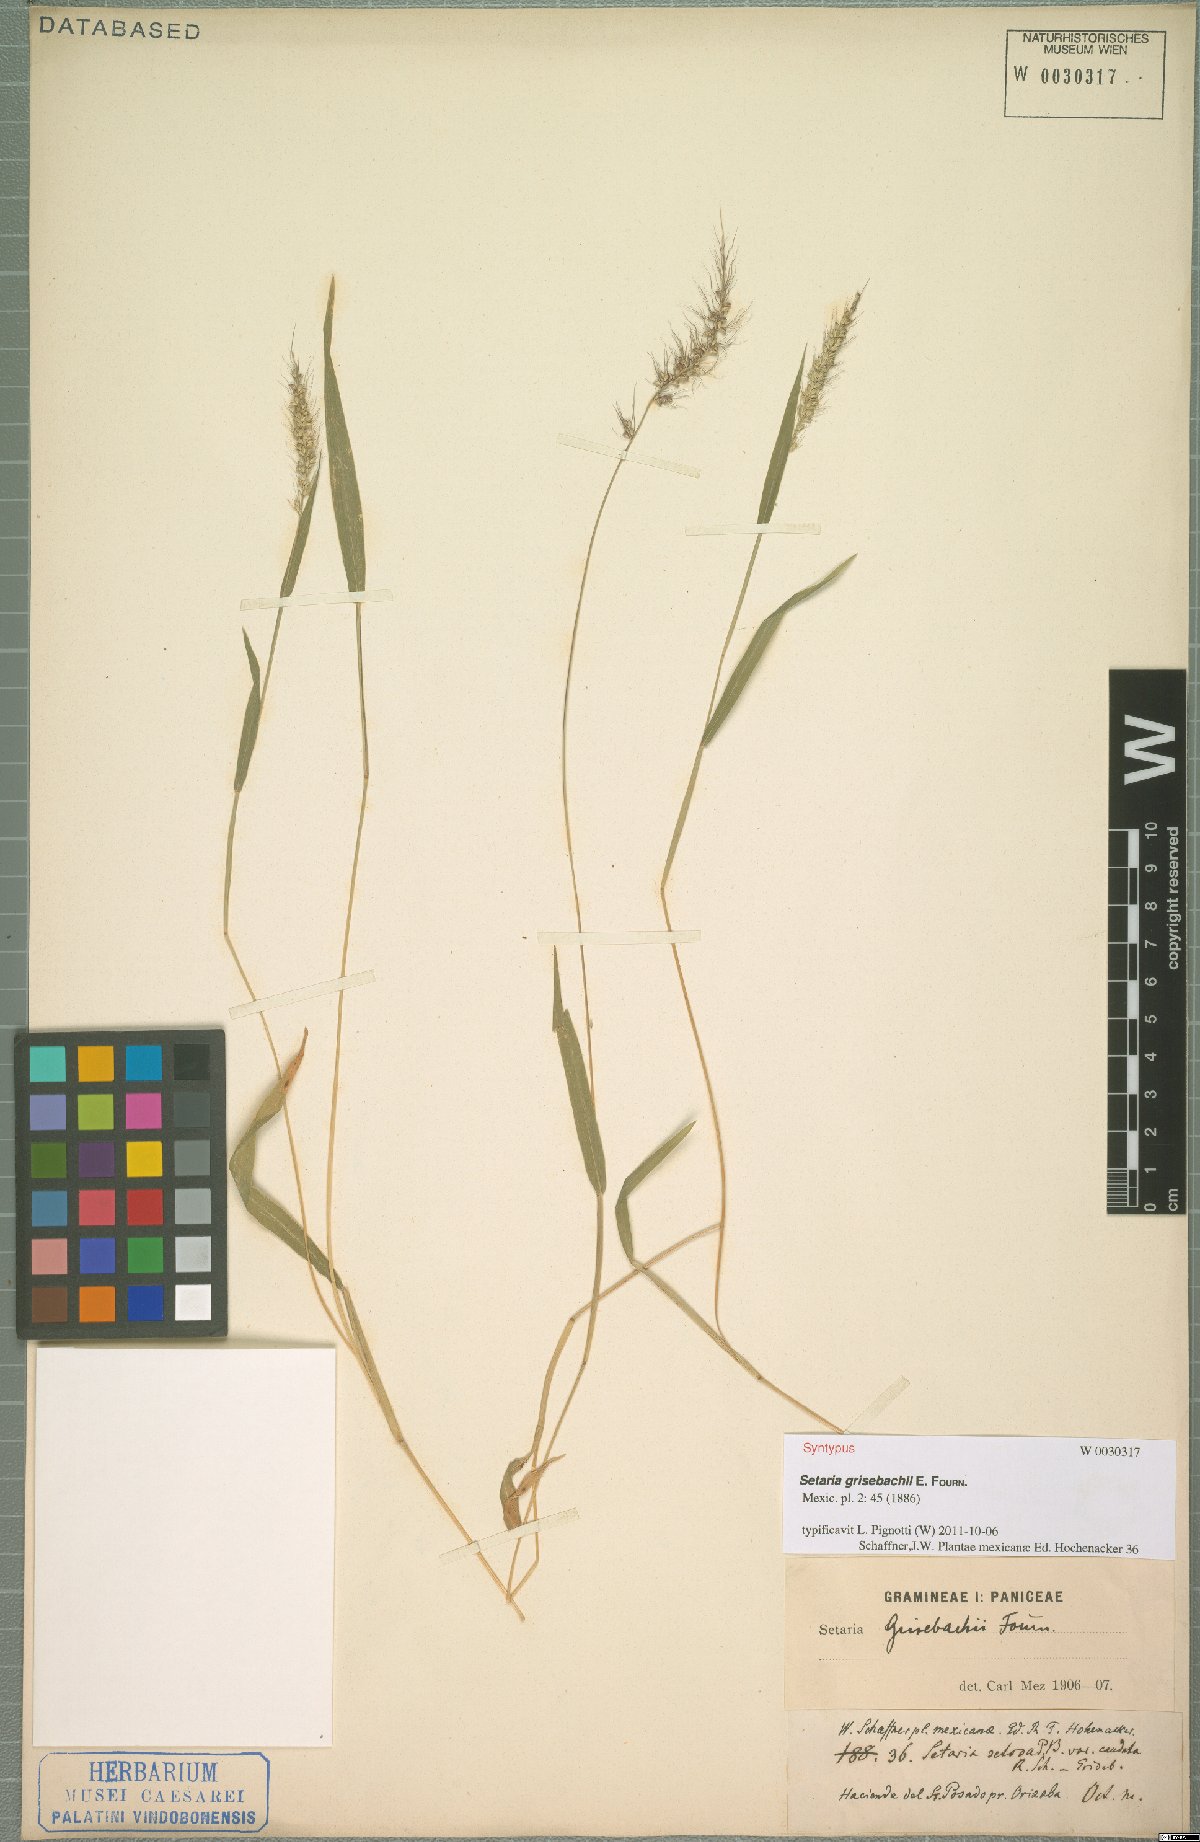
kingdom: Plantae
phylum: Tracheophyta
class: Liliopsida
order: Poales
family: Poaceae
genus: Setaria
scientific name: Setaria grisebachii
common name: Grisebach's bristle grass
